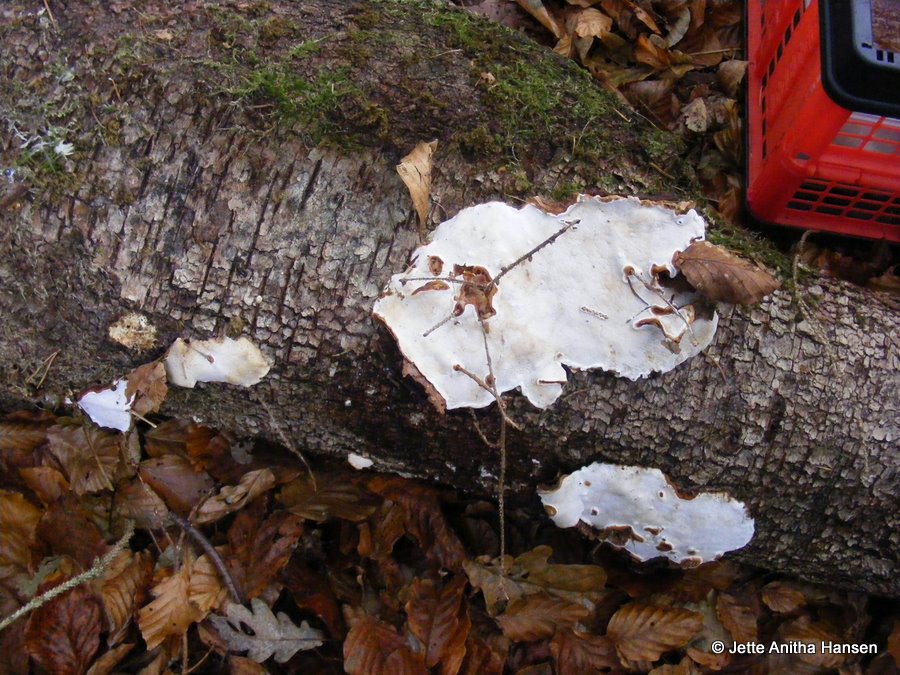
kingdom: Fungi
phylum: Basidiomycota
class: Agaricomycetes
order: Russulales
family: Bondarzewiaceae
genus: Heterobasidion
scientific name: Heterobasidion annosum
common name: almindelig rodfordærver
